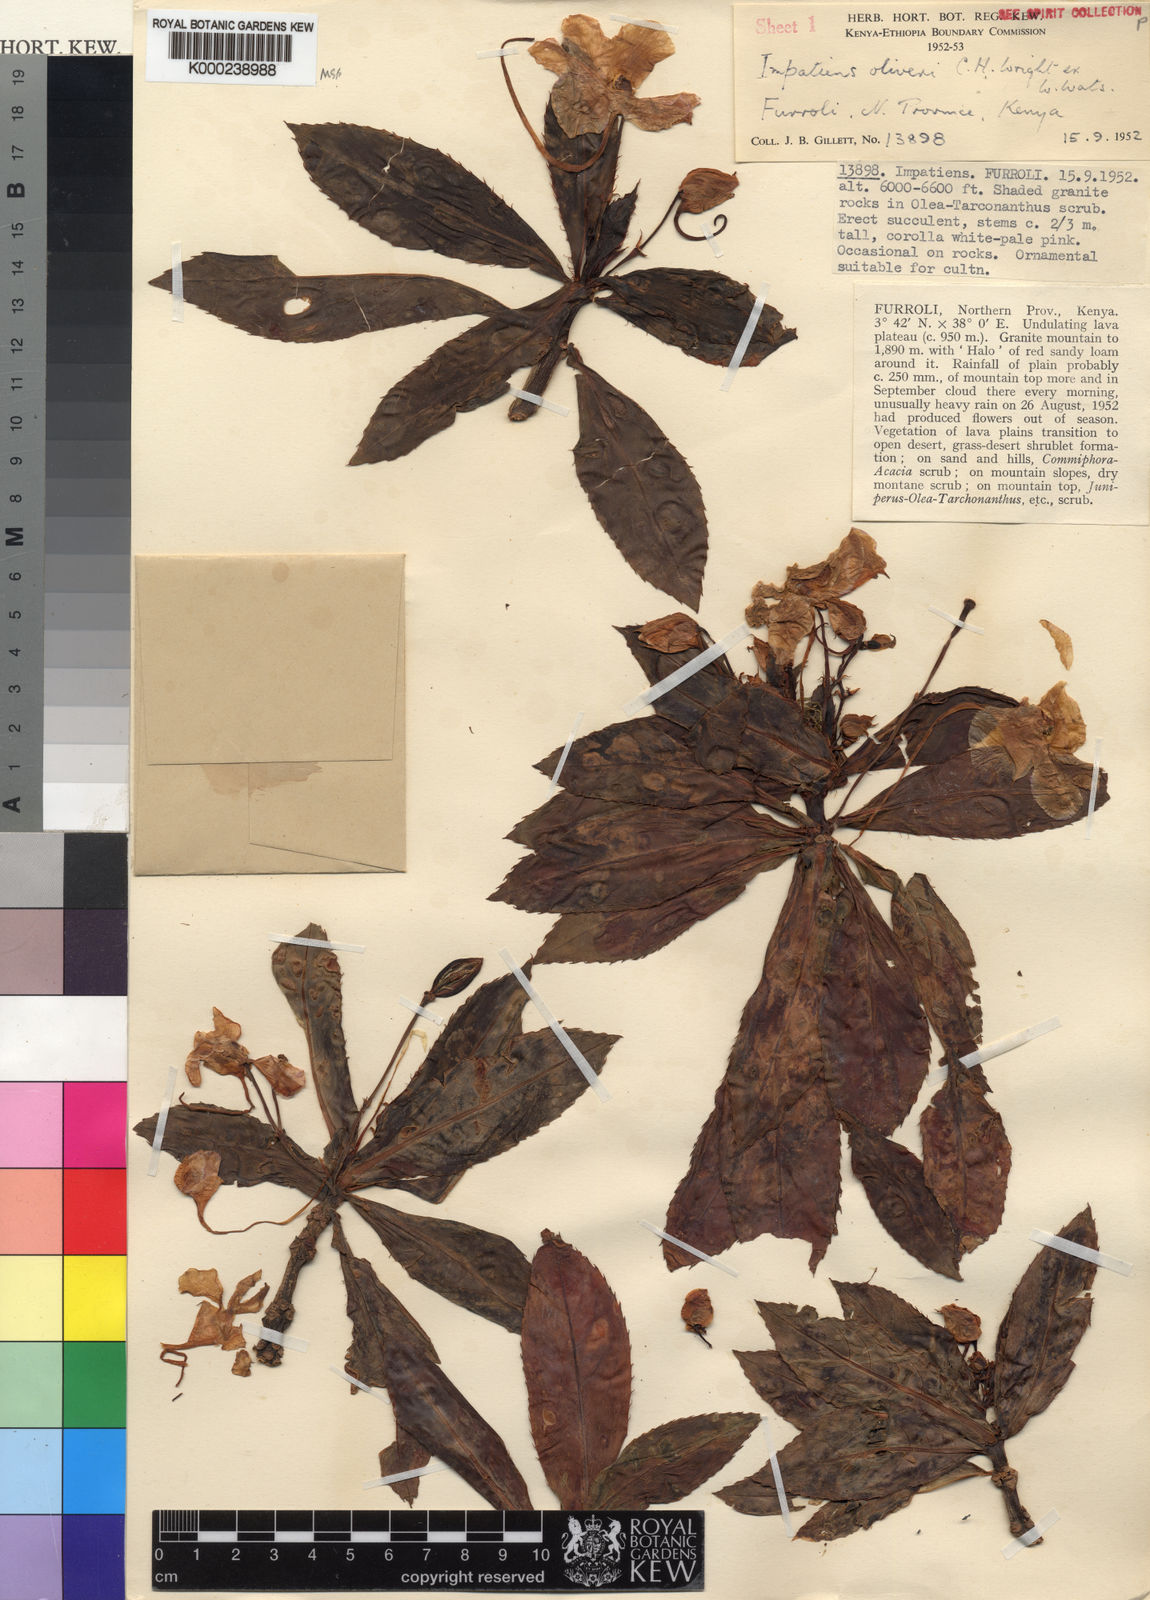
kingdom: Plantae
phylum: Tracheophyta
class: Magnoliopsida
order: Ericales
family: Balsaminaceae
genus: Impatiens
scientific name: Impatiens sodenii
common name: Oliver's touch-me-not
